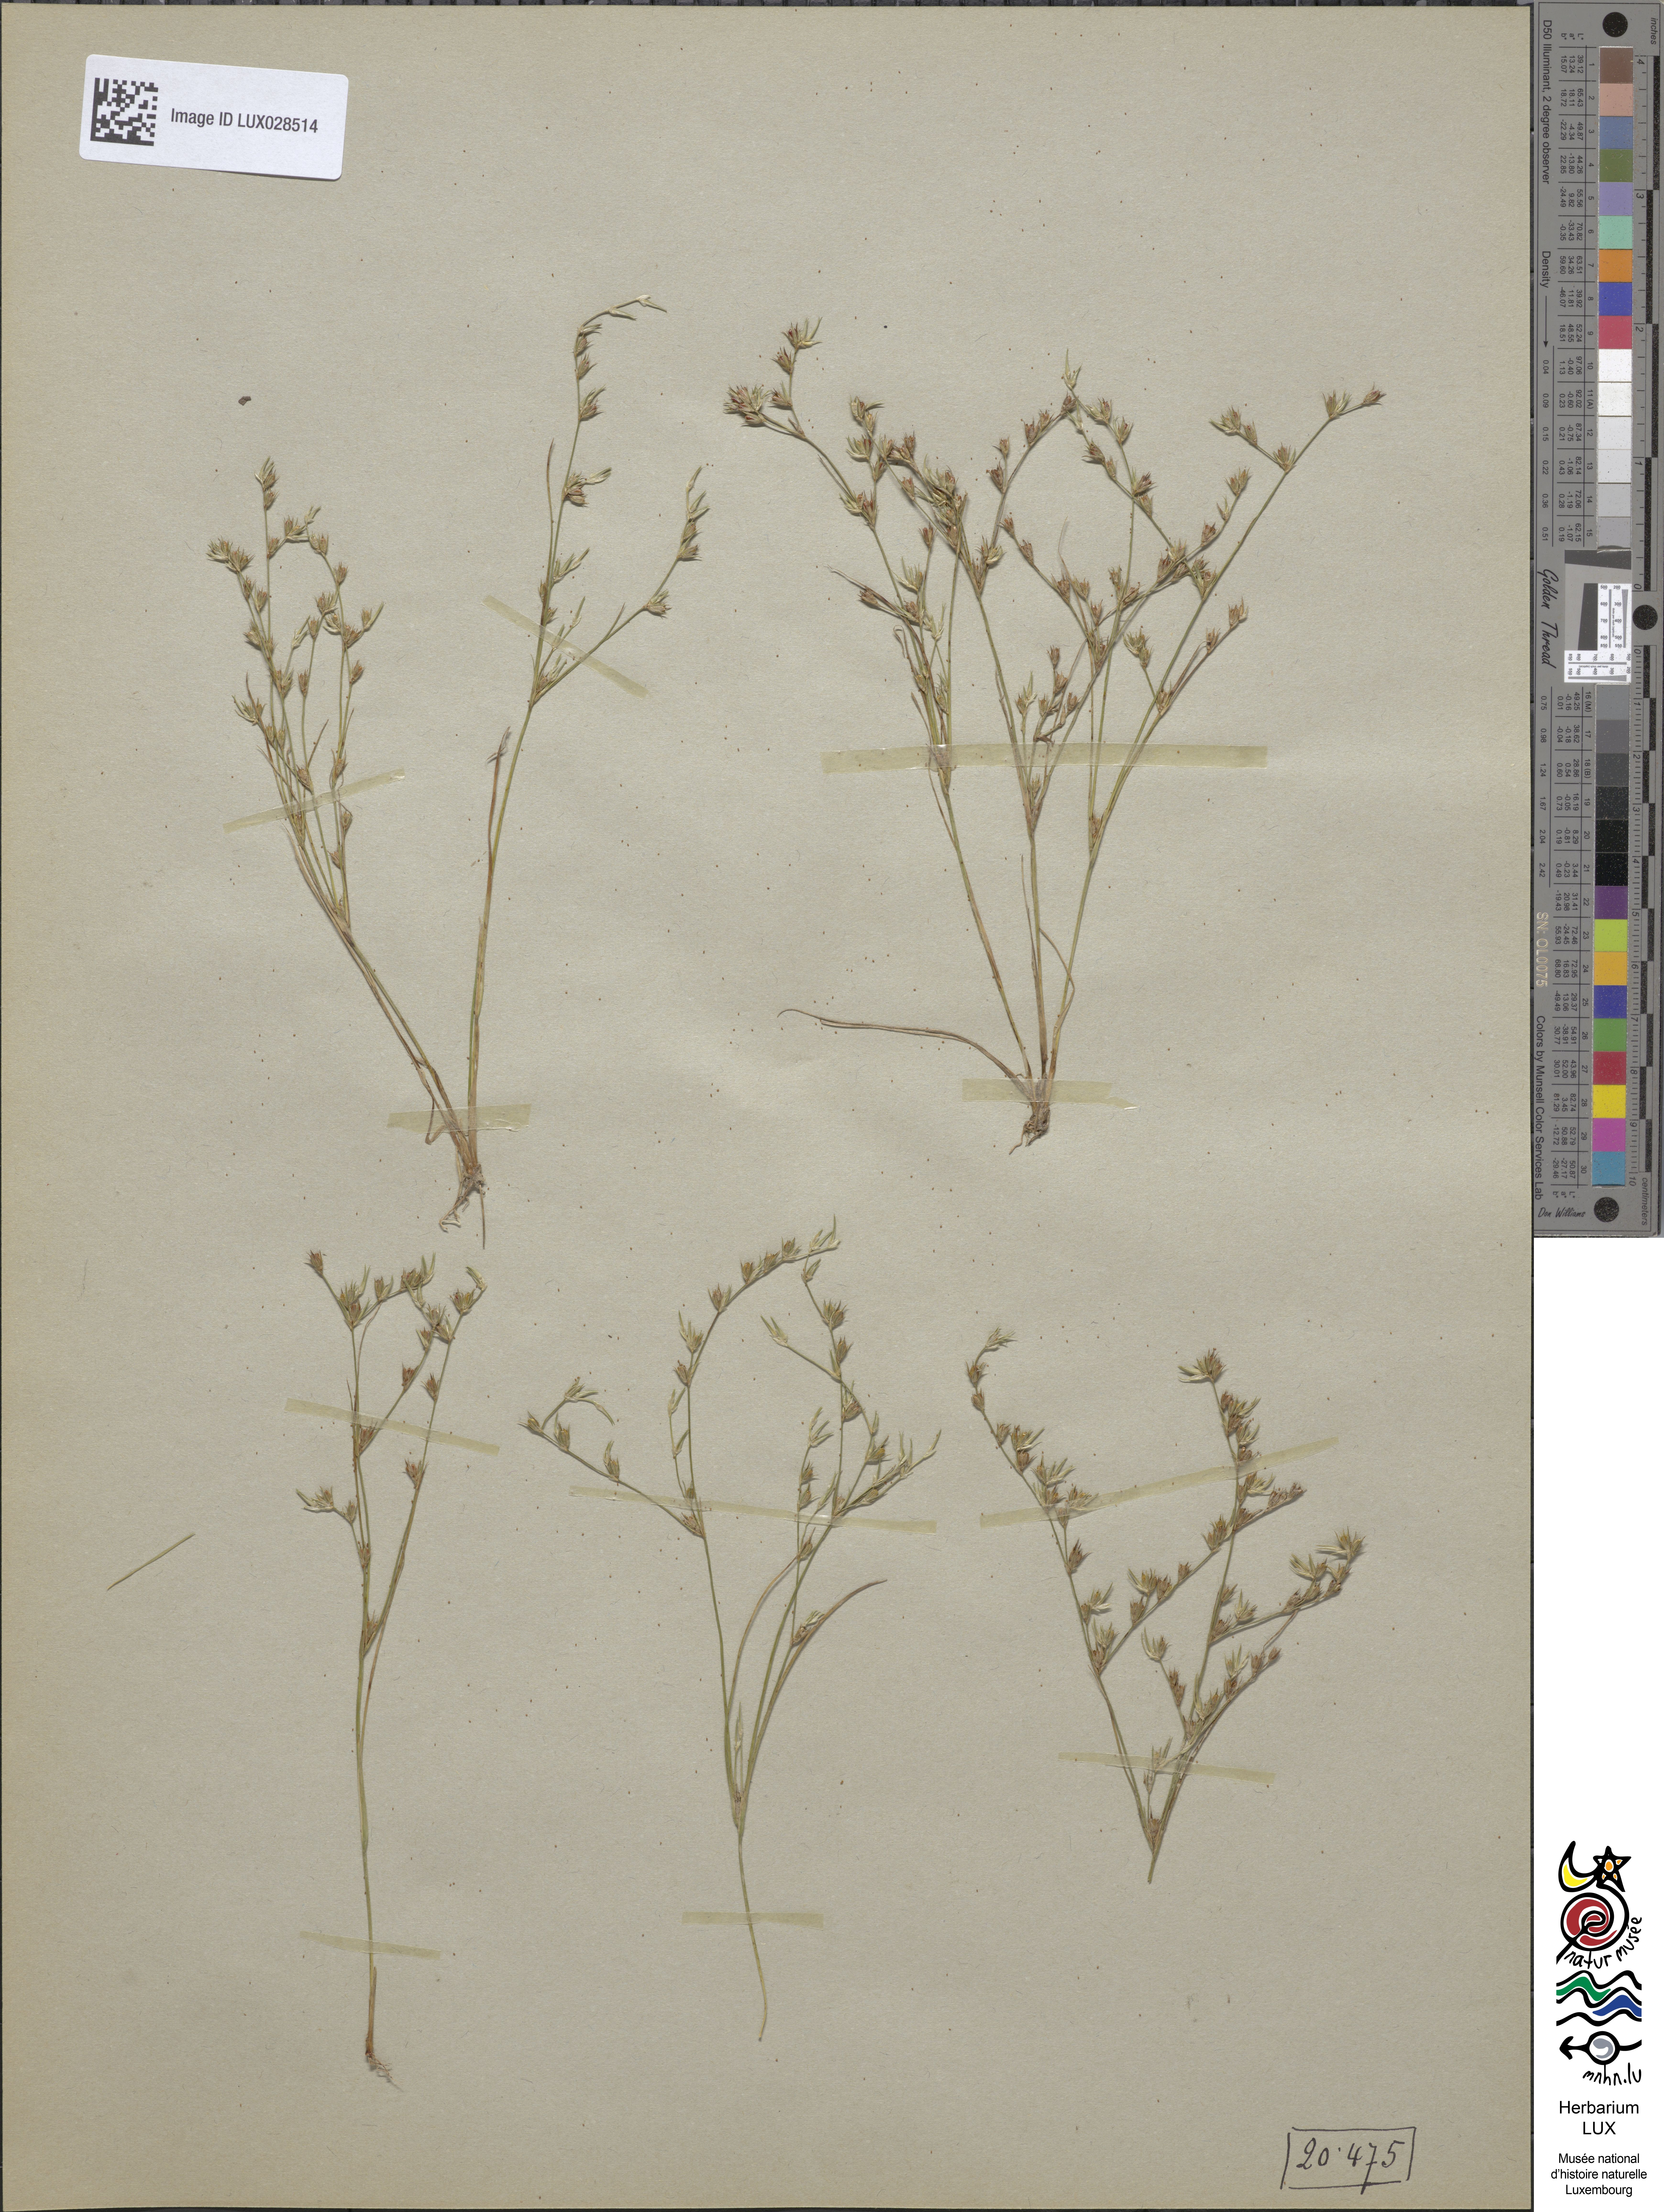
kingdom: Plantae
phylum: Tracheophyta
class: Liliopsida
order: Poales
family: Juncaceae
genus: Juncus
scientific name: Juncus bufonius
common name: Toad rush
